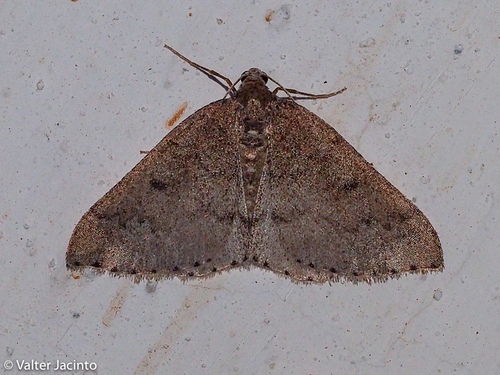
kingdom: Animalia
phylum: Arthropoda
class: Insecta
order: Lepidoptera
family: Geometridae
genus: Aleucis
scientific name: Aleucis distinctata
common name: Sloe carpet
